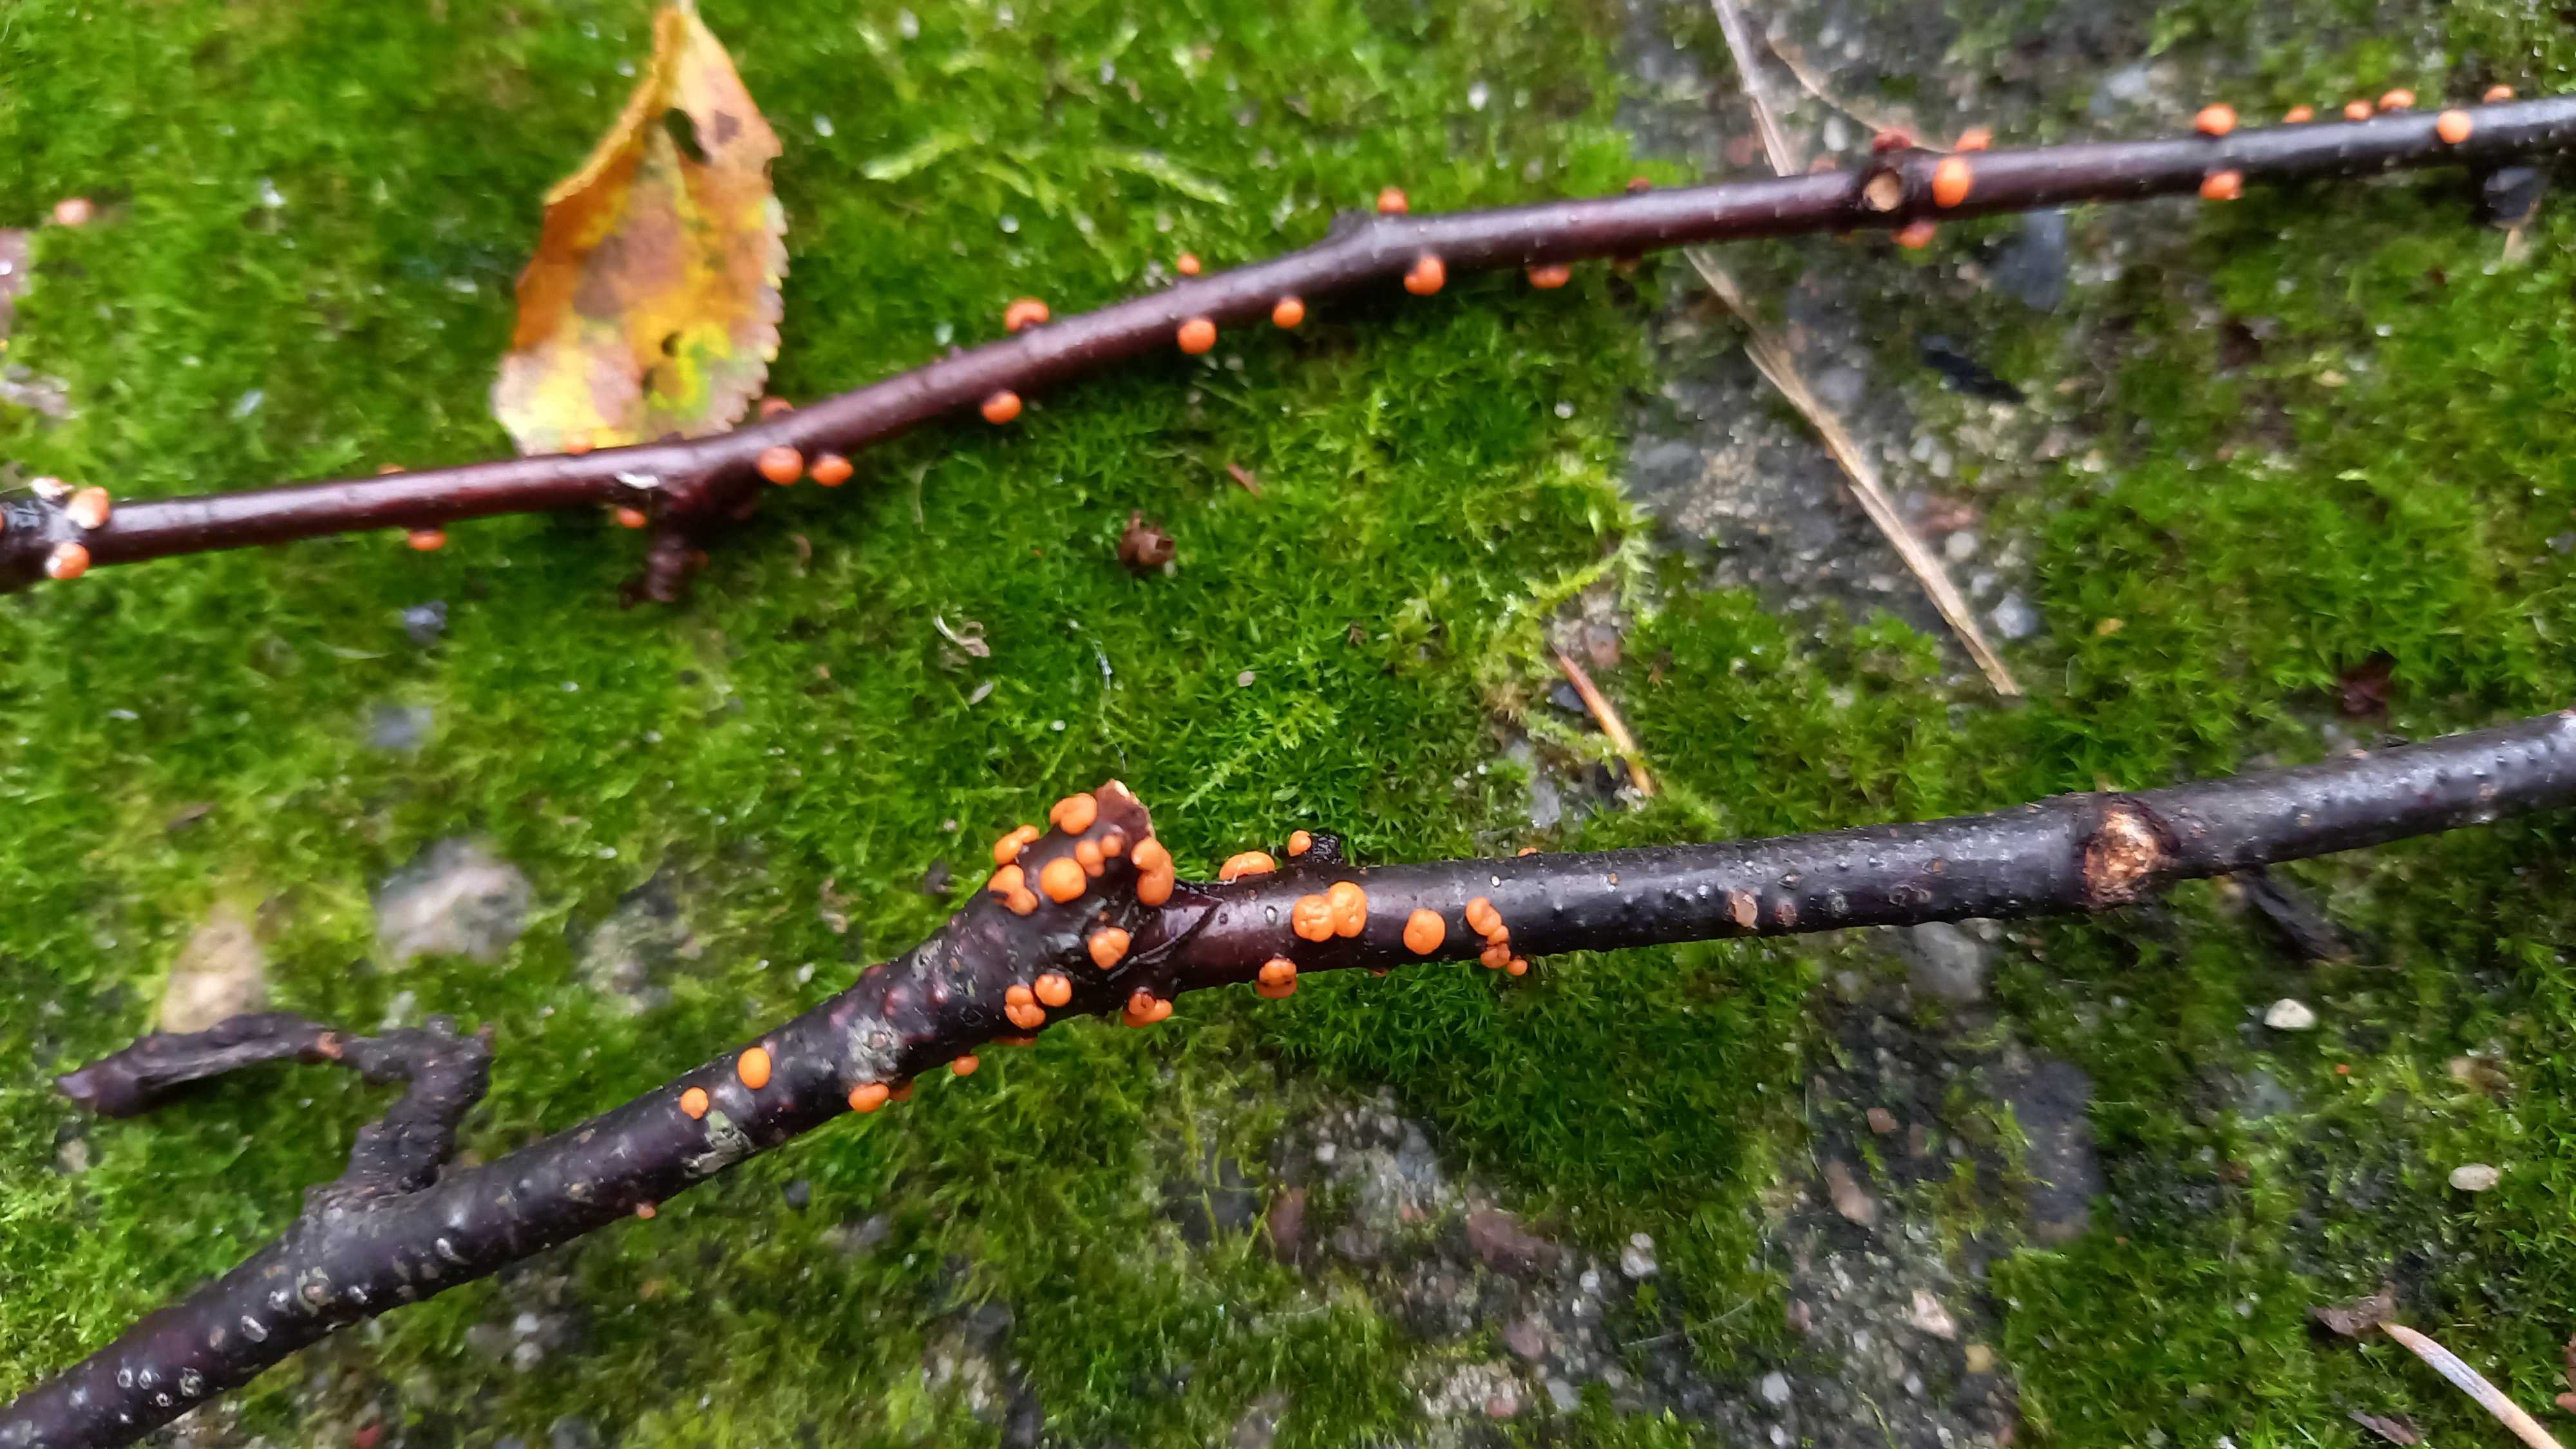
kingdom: Fungi
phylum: Ascomycota
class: Sordariomycetes
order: Hypocreales
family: Nectriaceae
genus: Nectria
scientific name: Nectria cinnabarina
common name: almindelig cinnobersvamp
